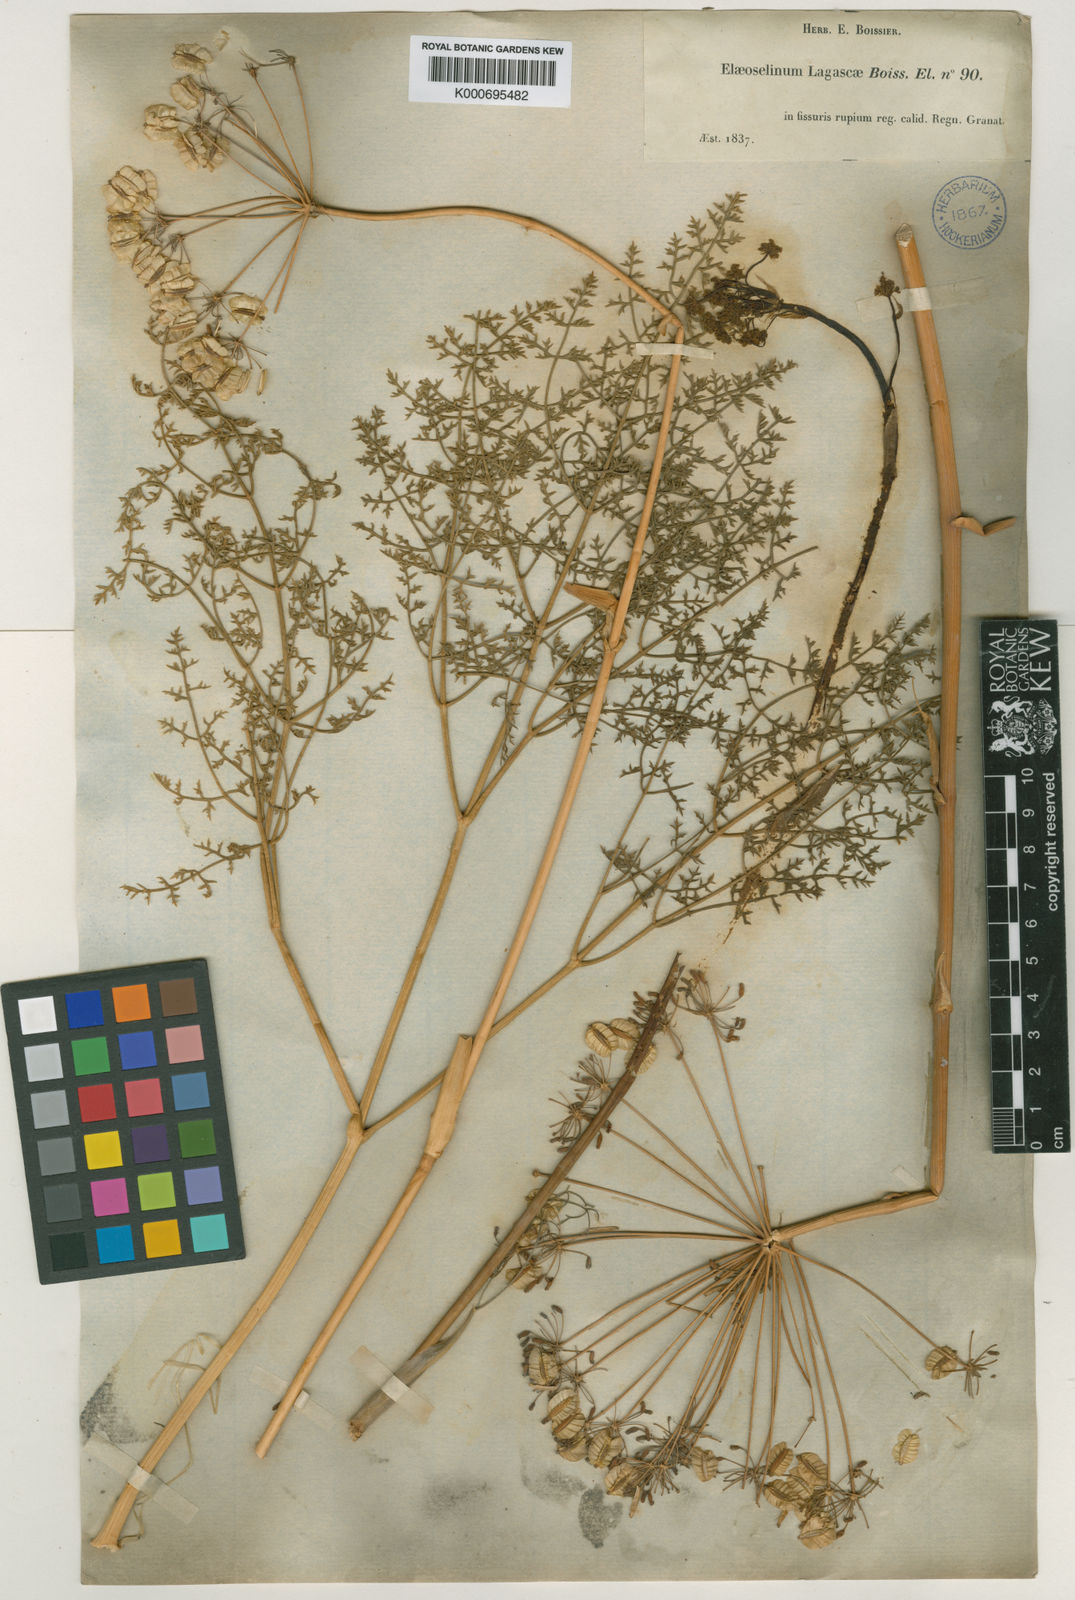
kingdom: Plantae
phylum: Tracheophyta
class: Magnoliopsida
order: Apiales
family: Apiaceae
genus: Thapsia
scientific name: Thapsia tenuifolia
